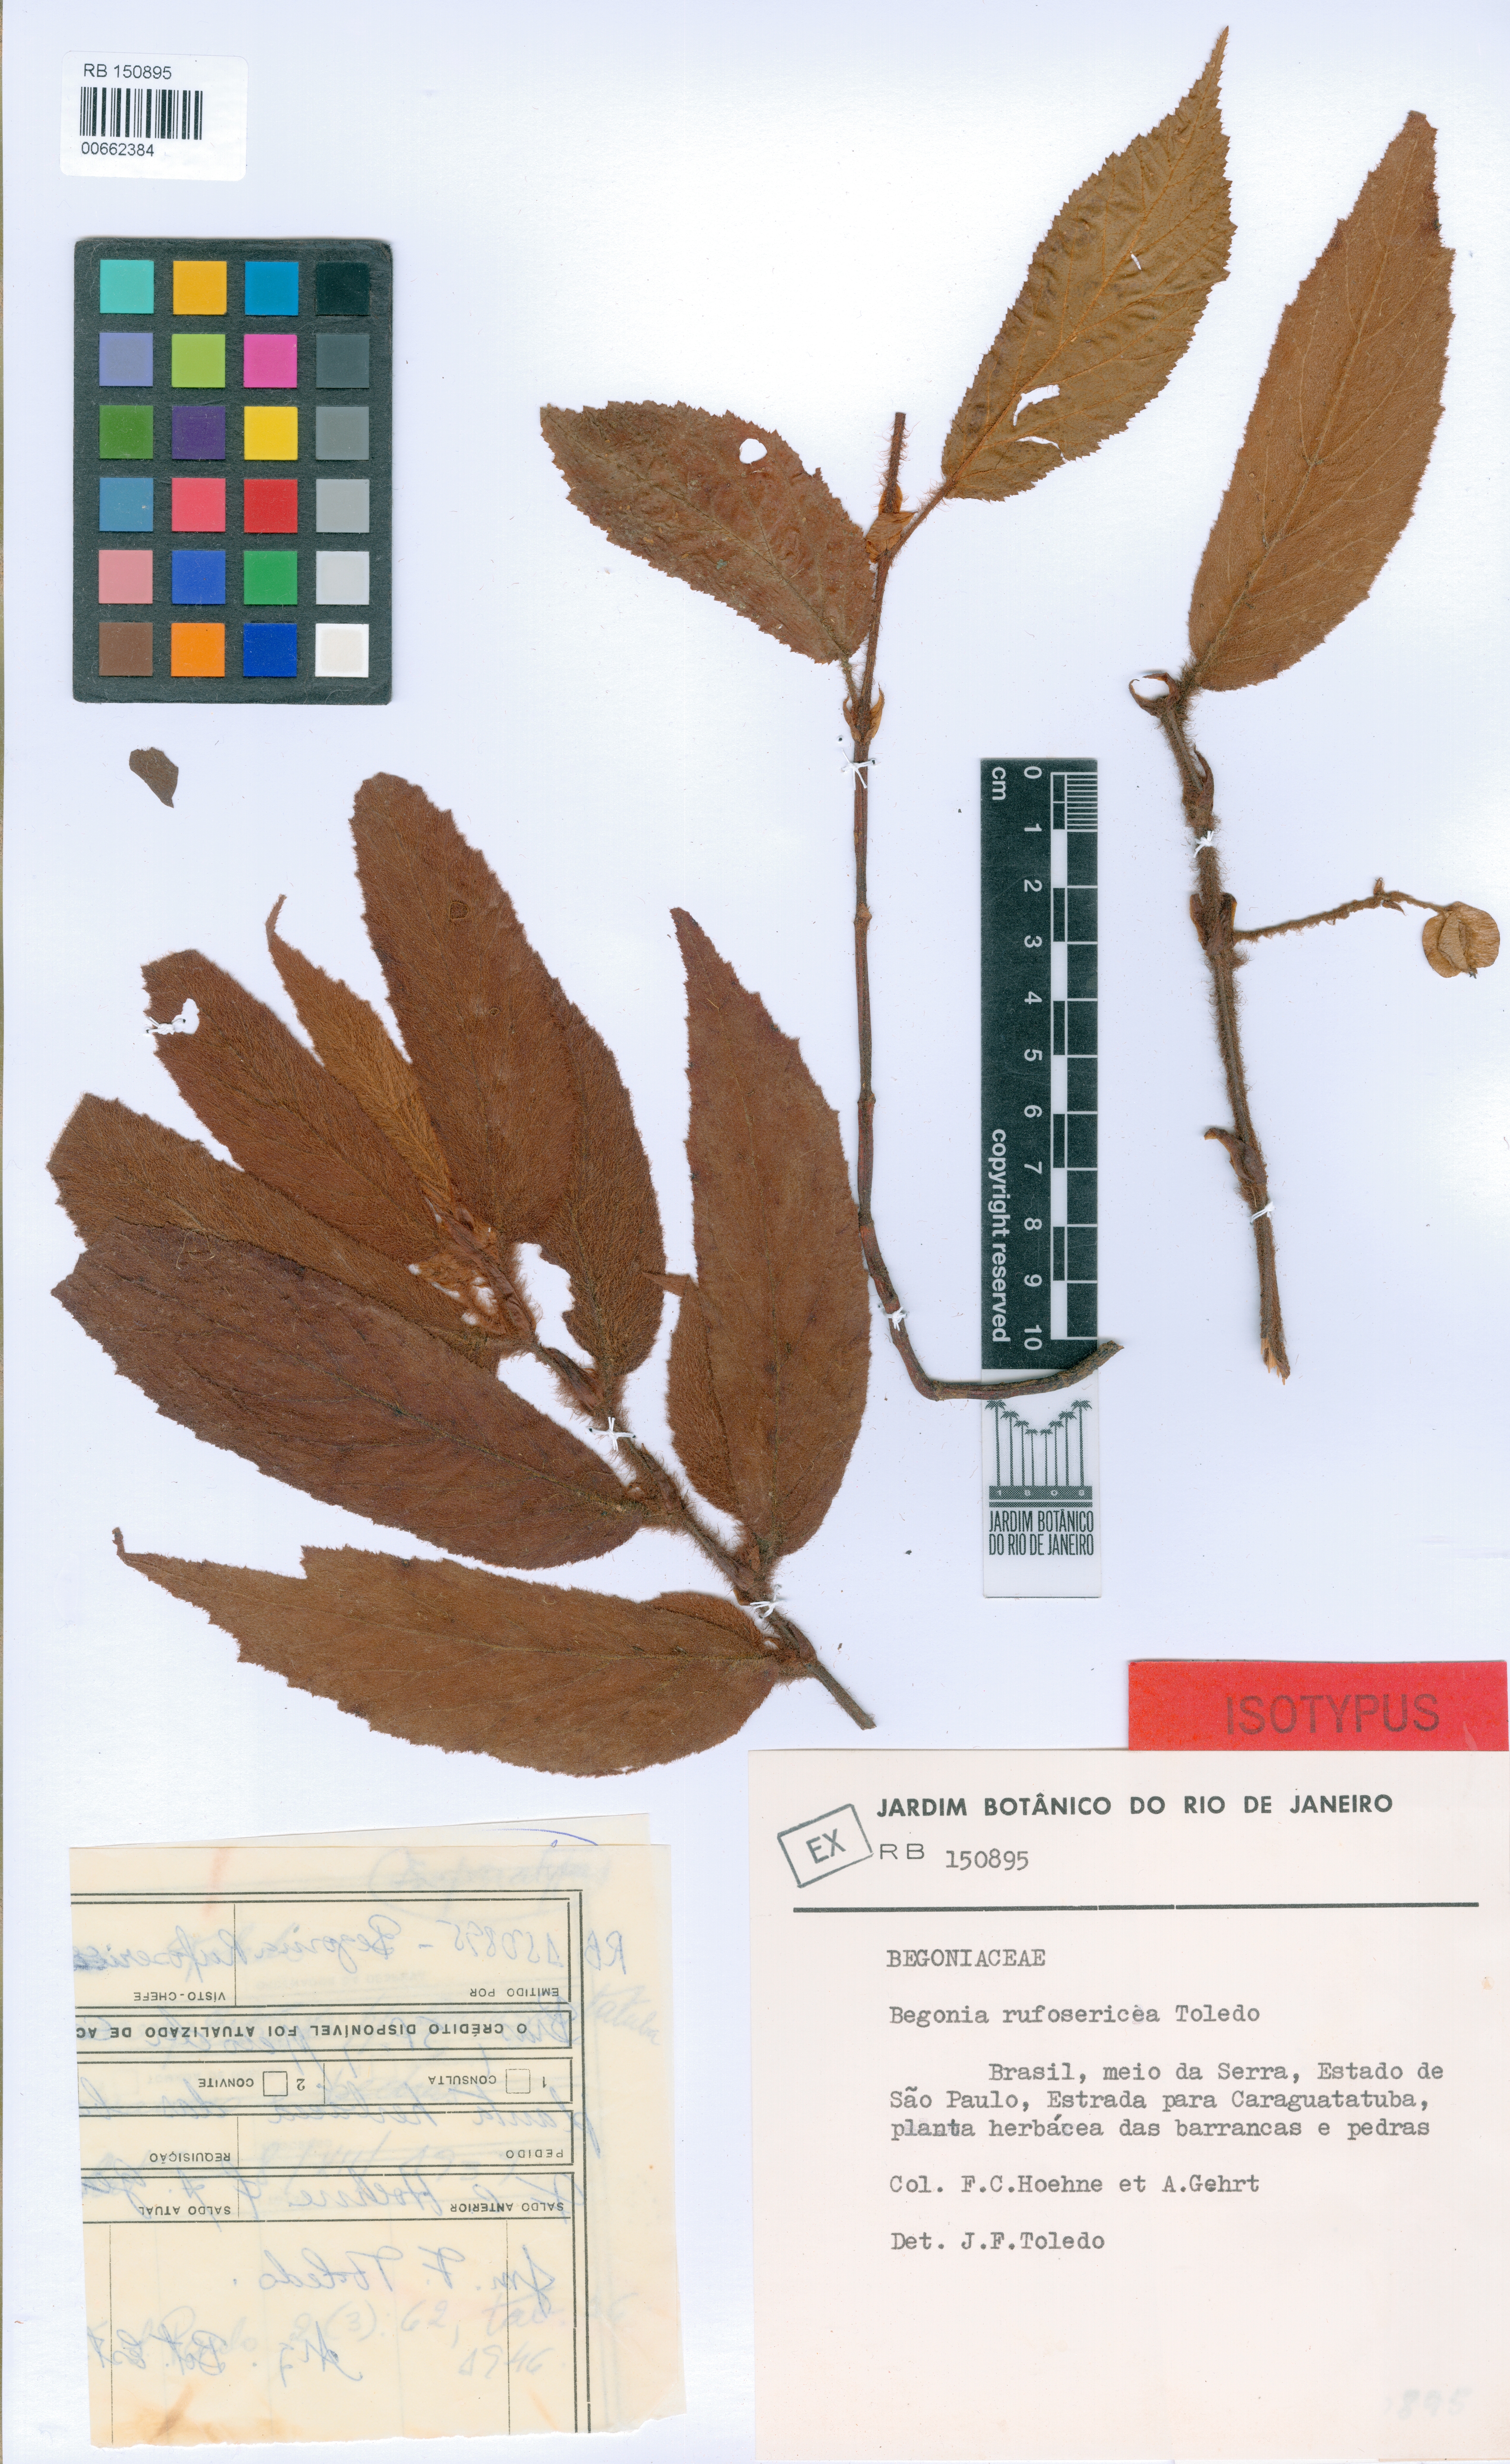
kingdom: Plantae
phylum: Tracheophyta
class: Magnoliopsida
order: Cucurbitales
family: Begoniaceae
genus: Begonia
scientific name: Begonia rufosericea
